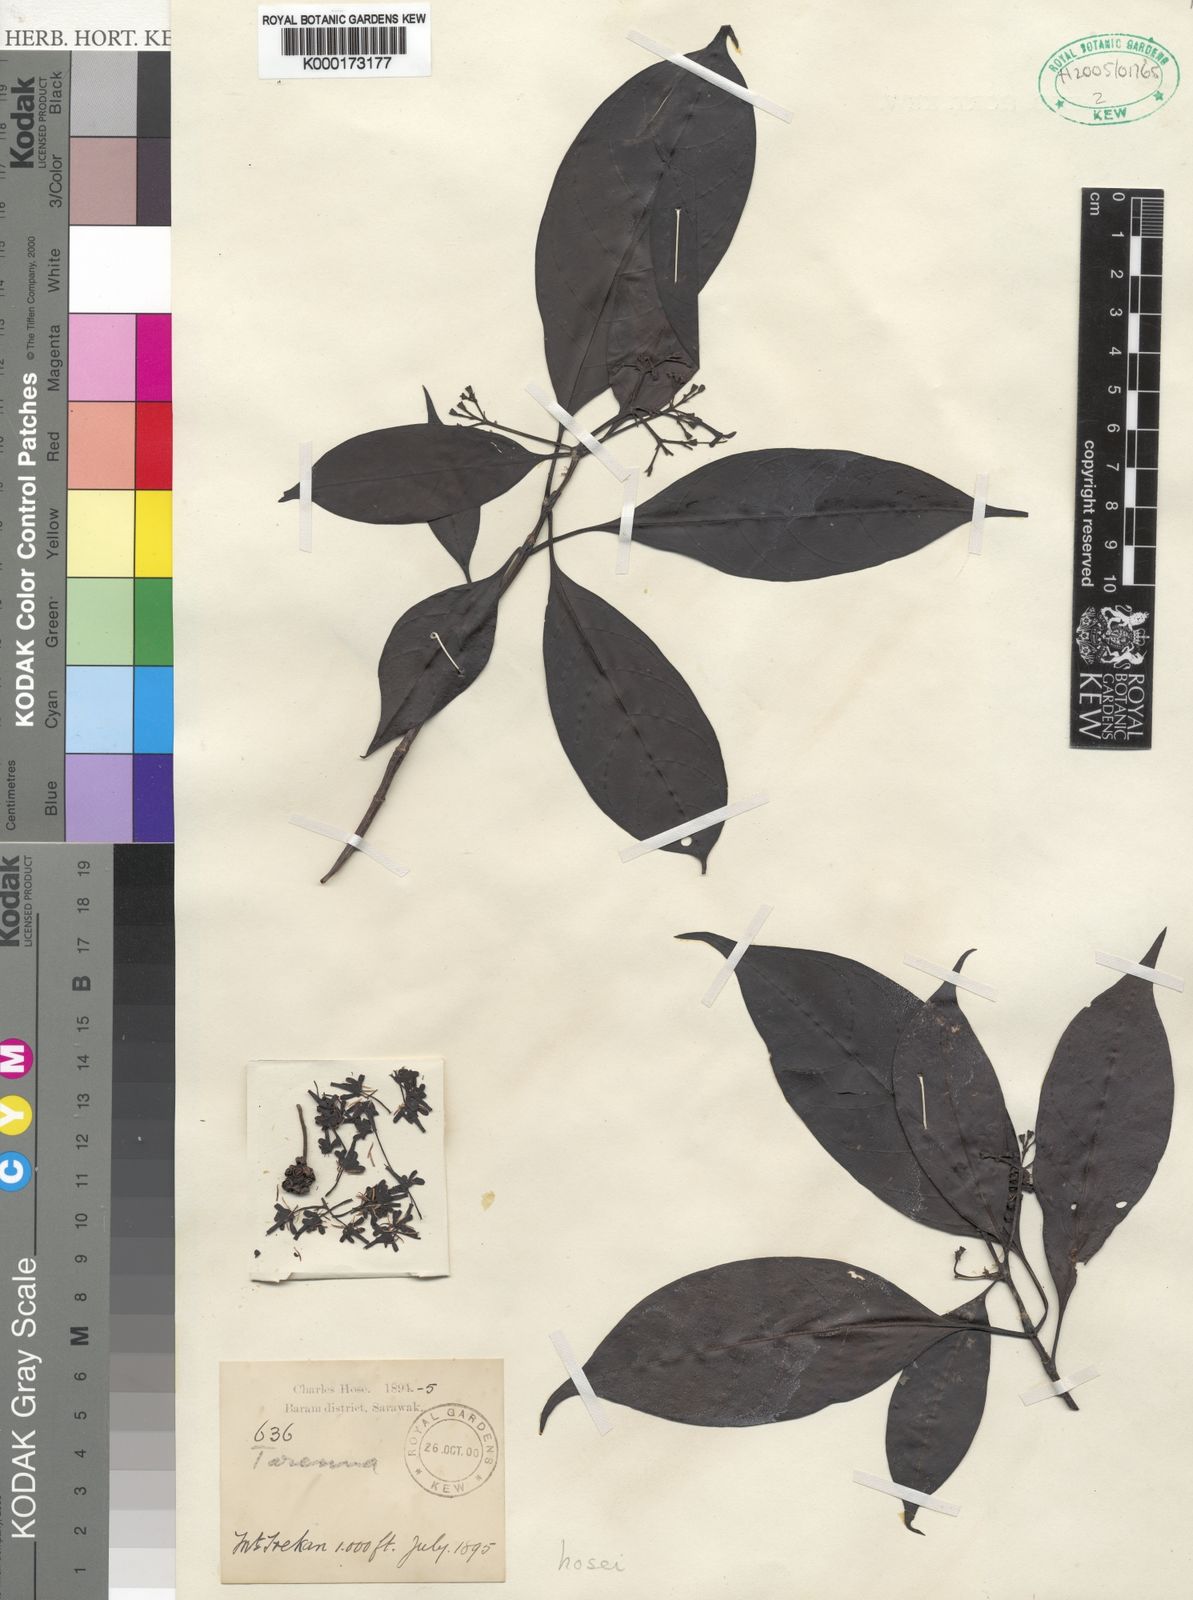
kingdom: Plantae
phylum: Tracheophyta
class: Magnoliopsida
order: Gentianales
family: Rubiaceae
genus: Tarenna
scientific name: Tarenna hosei
